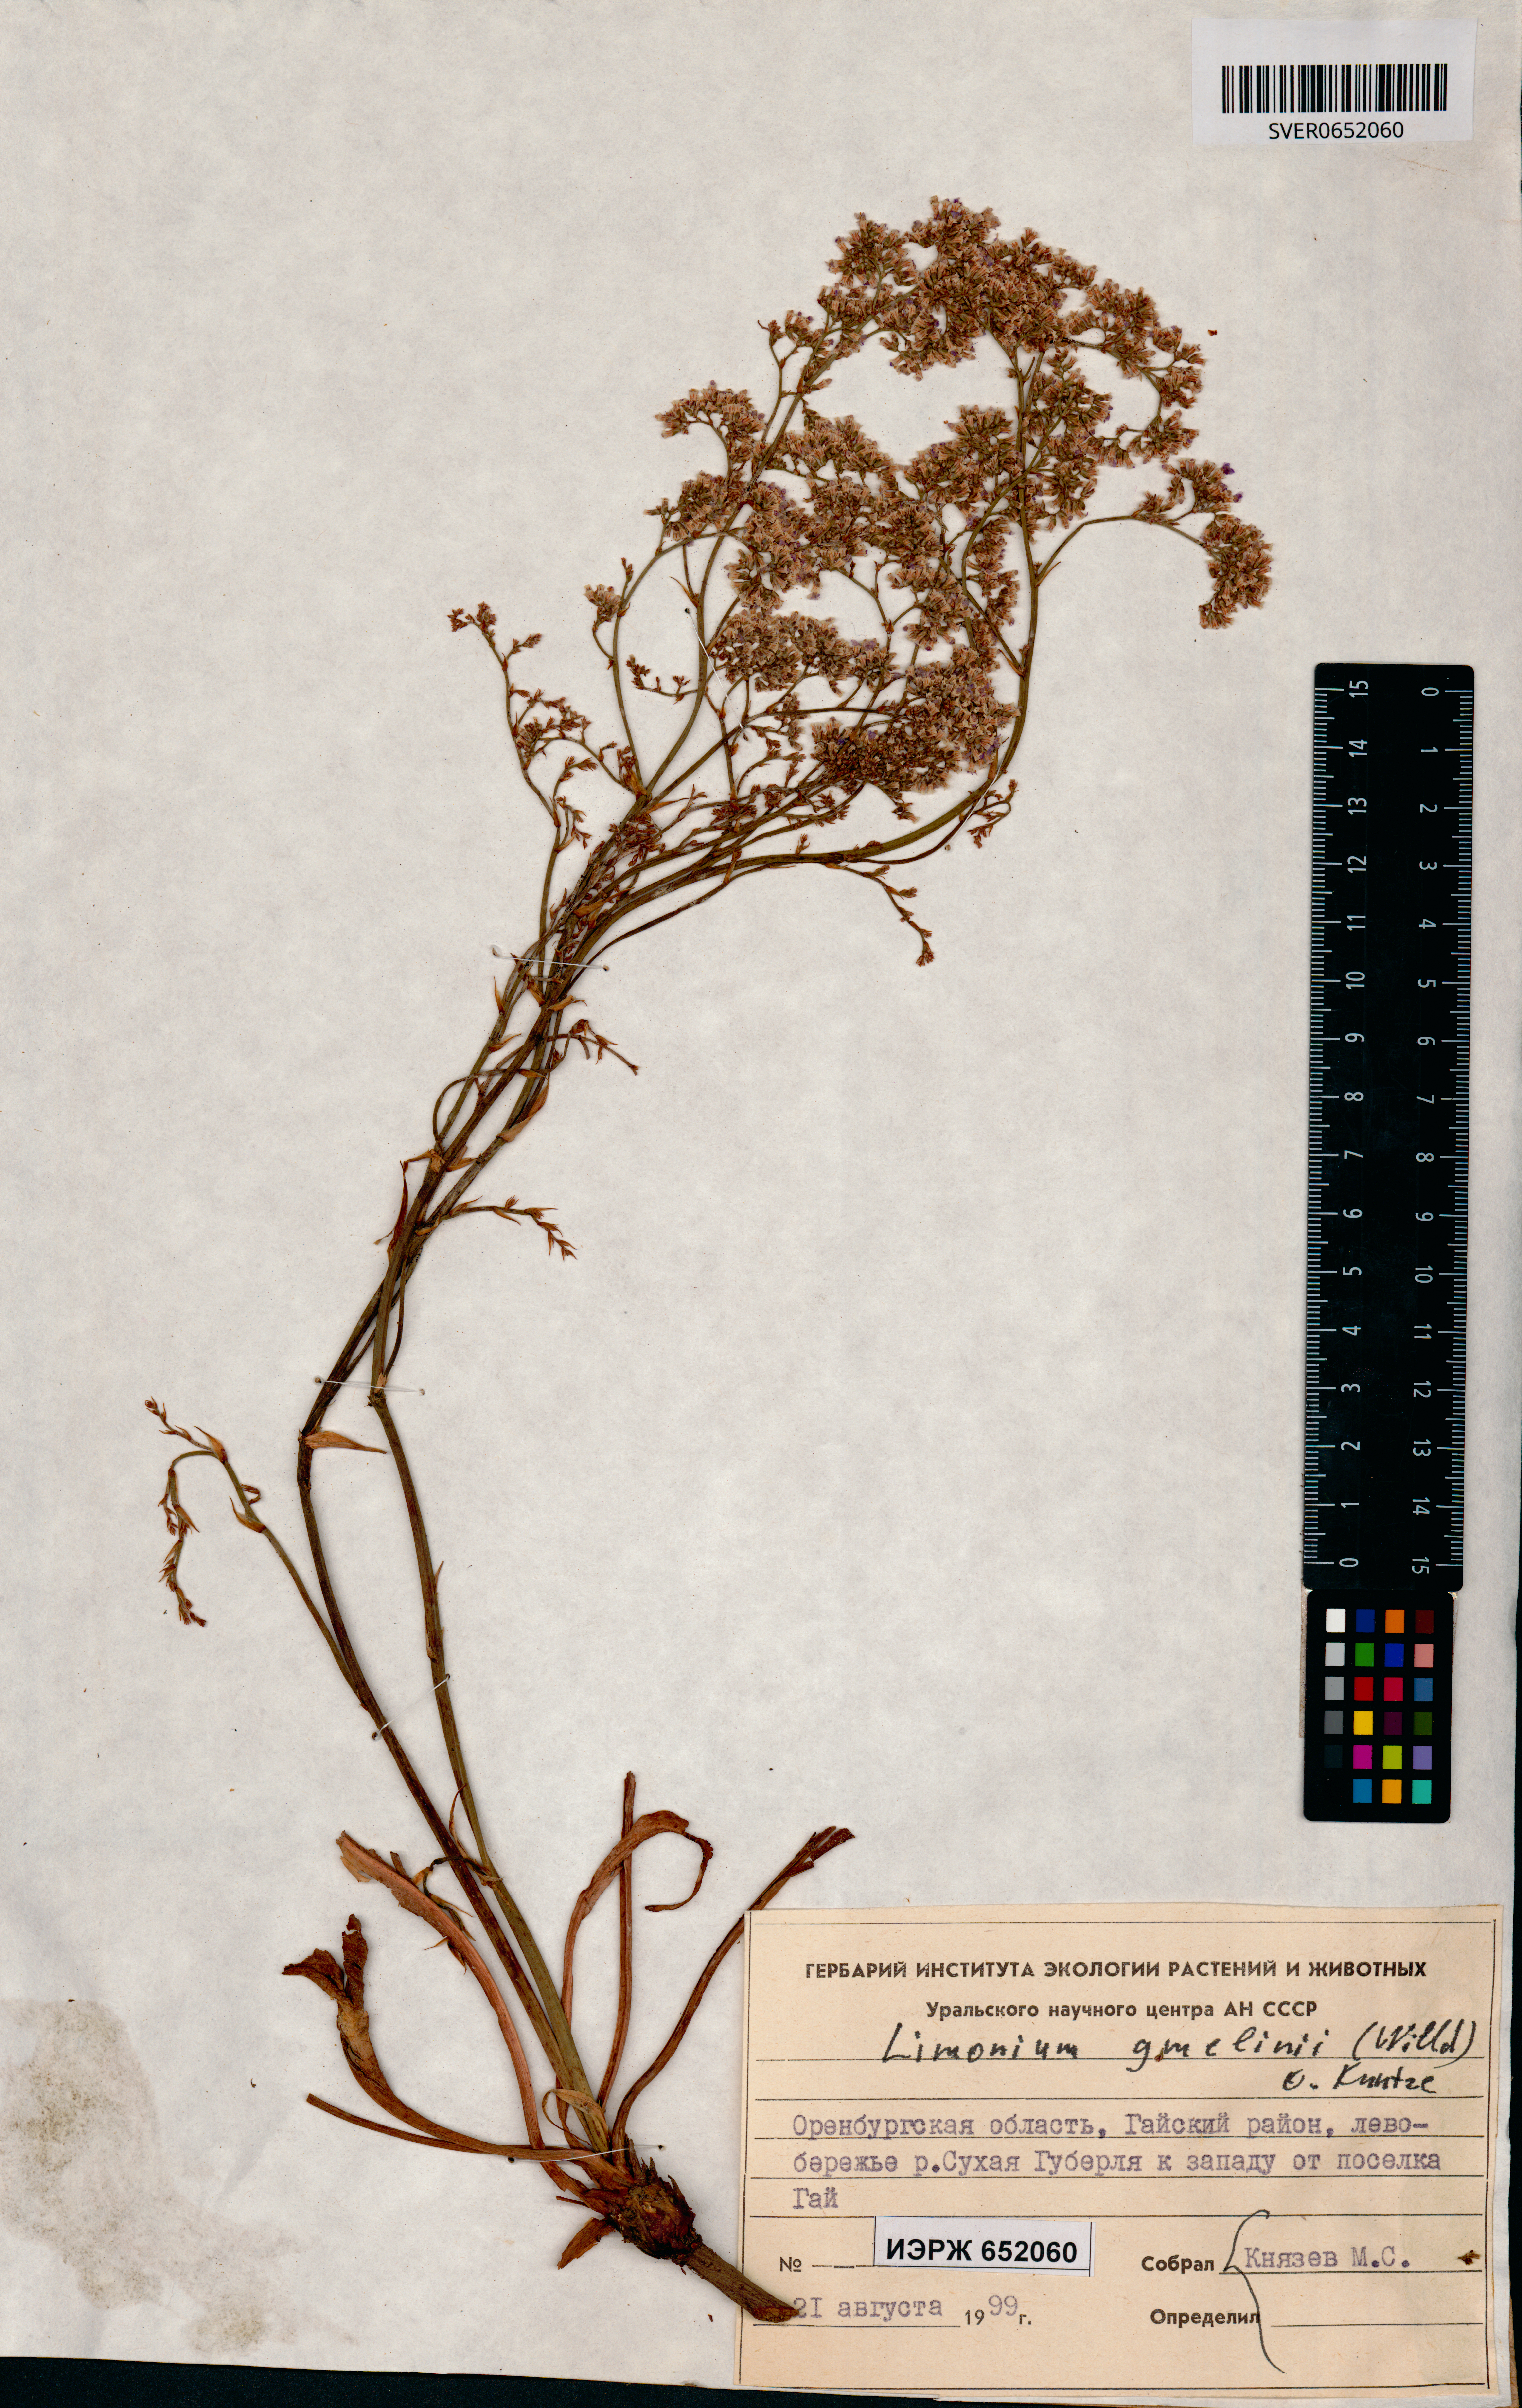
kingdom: Plantae
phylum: Tracheophyta
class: Magnoliopsida
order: Caryophyllales
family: Plumbaginaceae
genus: Limonium
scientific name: Limonium gmelini
